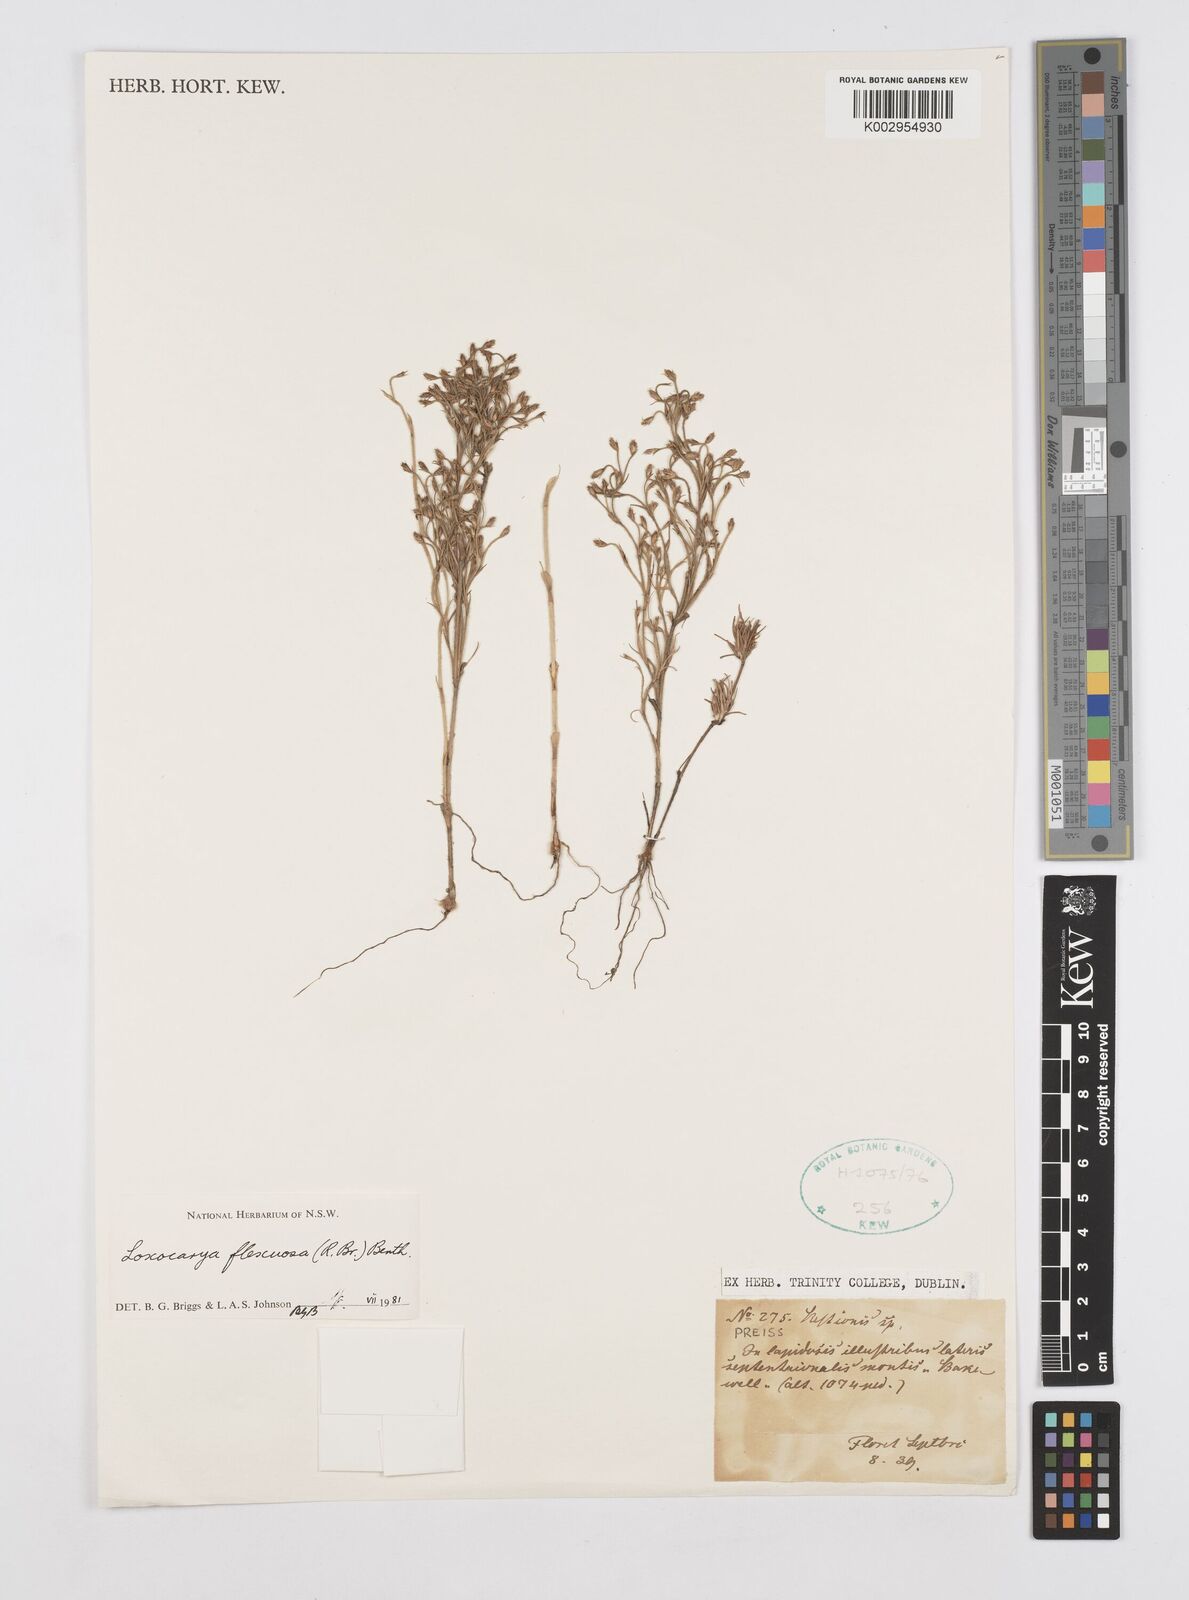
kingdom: Plantae
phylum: Tracheophyta
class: Liliopsida
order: Poales
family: Restionaceae
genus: Desmocladus
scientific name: Desmocladus flexuosus
